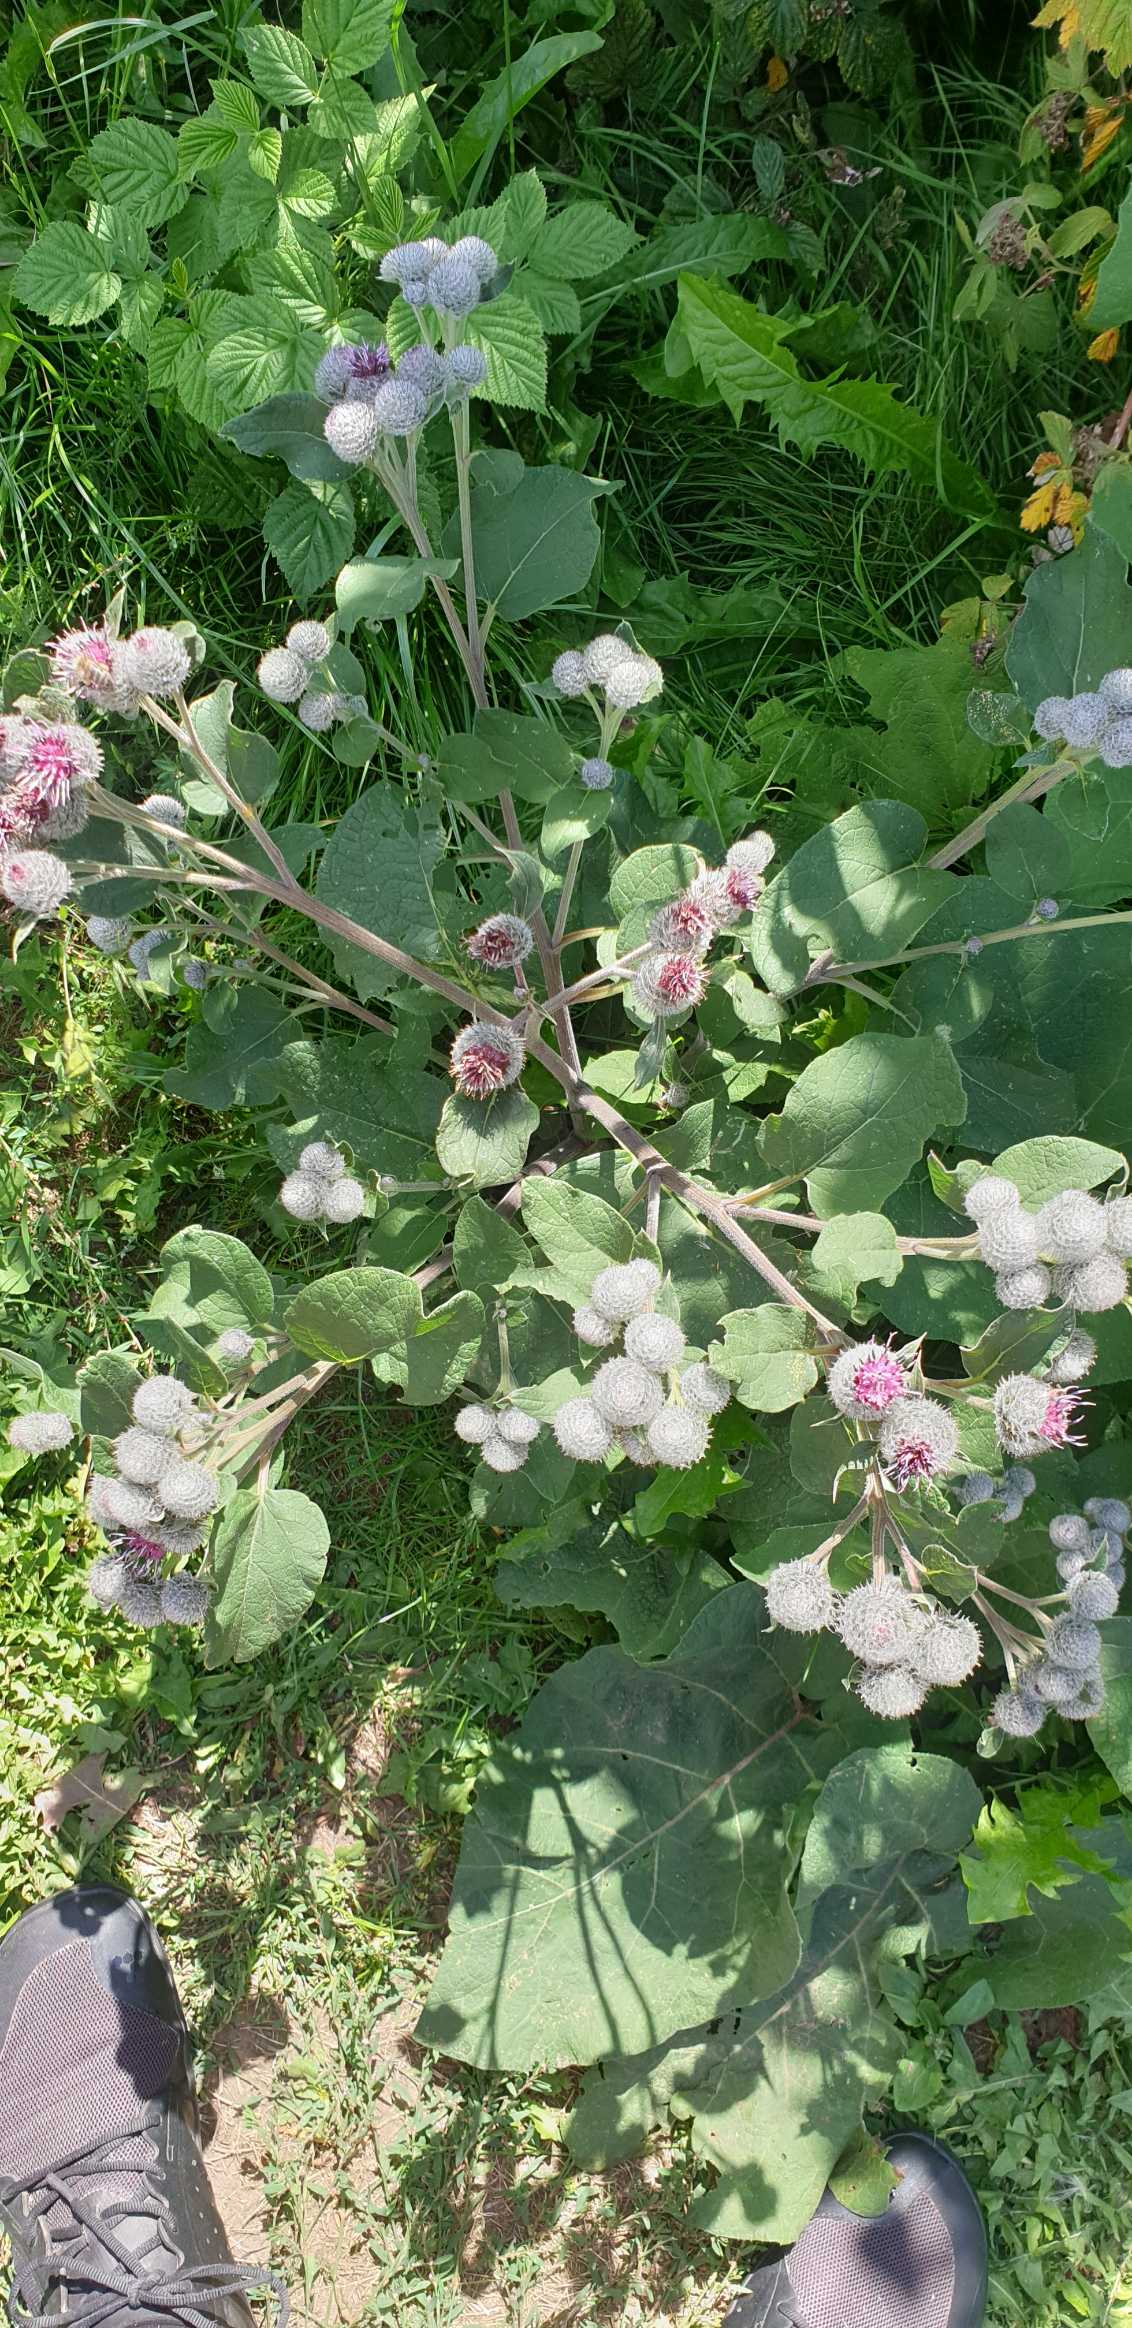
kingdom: Plantae
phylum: Tracheophyta
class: Magnoliopsida
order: Asterales
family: Asteraceae
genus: Arctium
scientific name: Arctium tomentosum
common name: Filtet burre
